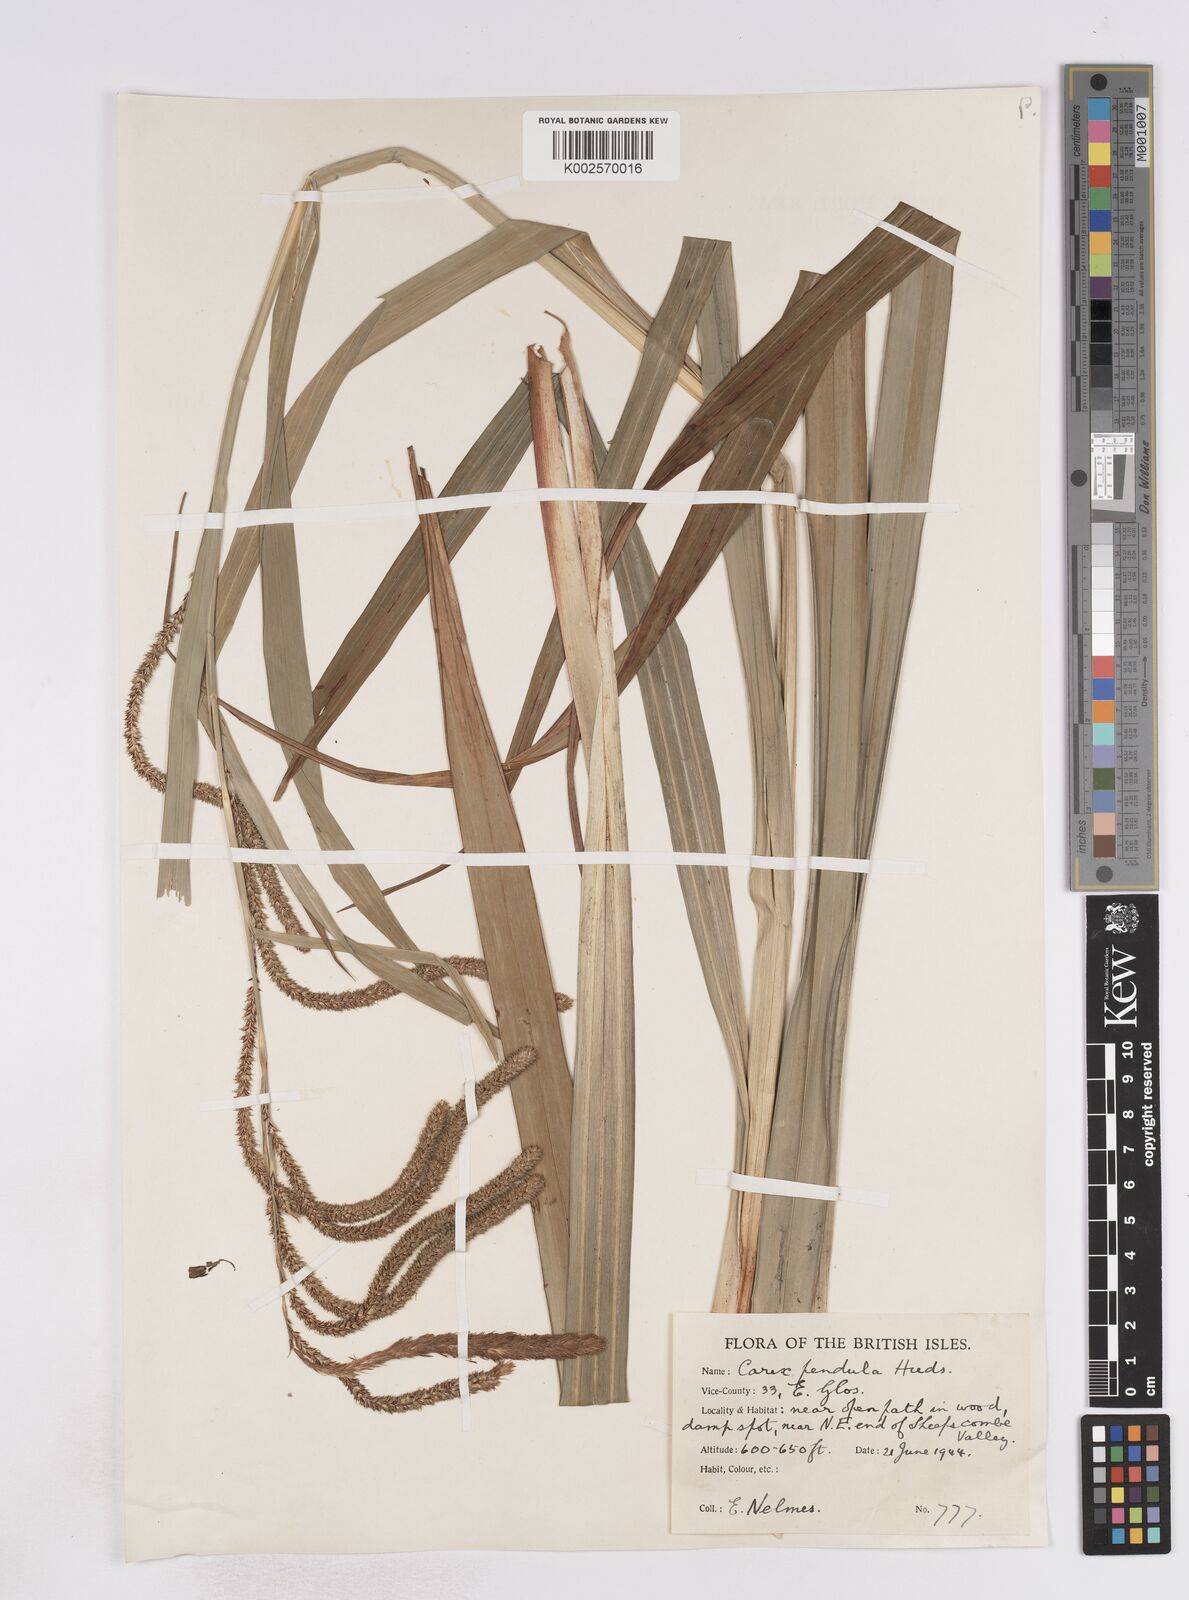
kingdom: Plantae
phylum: Tracheophyta
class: Liliopsida
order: Poales
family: Cyperaceae
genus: Carex
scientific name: Carex pendula
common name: Pendulous sedge
